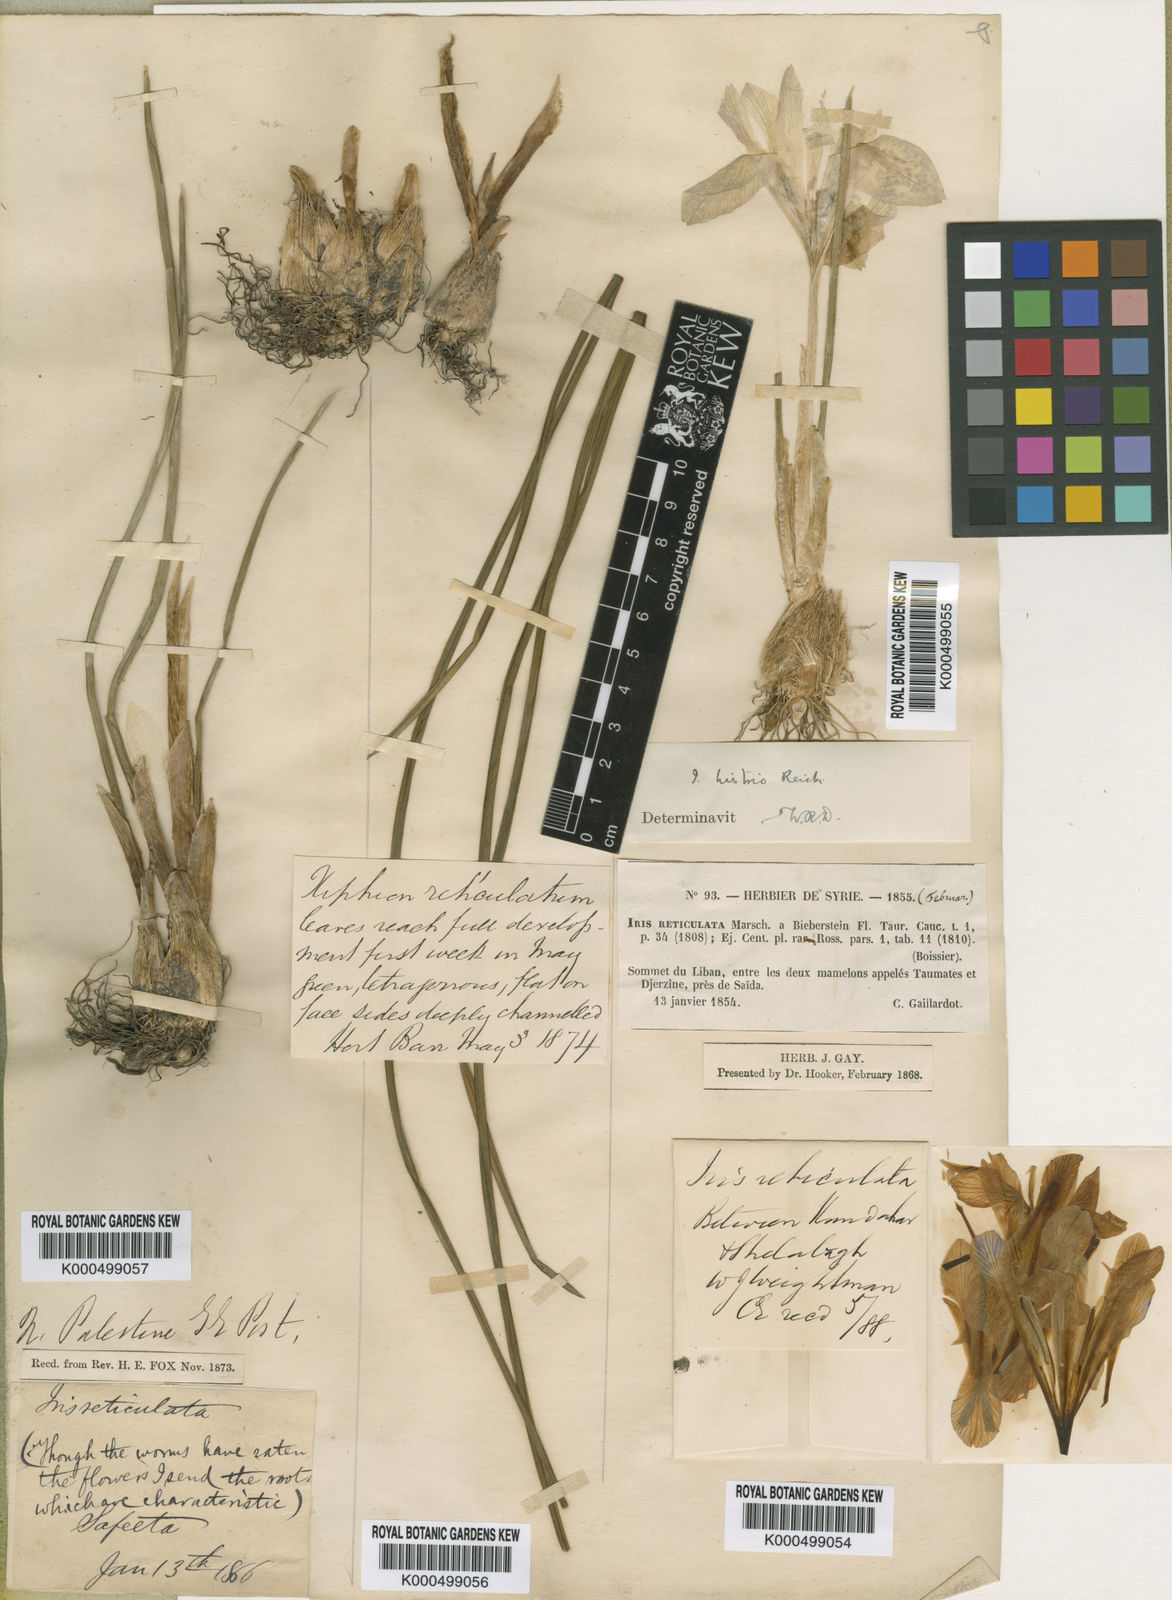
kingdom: Plantae
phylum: Tracheophyta
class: Liliopsida
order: Asparagales
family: Iridaceae
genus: Iris
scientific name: Iris histrio
